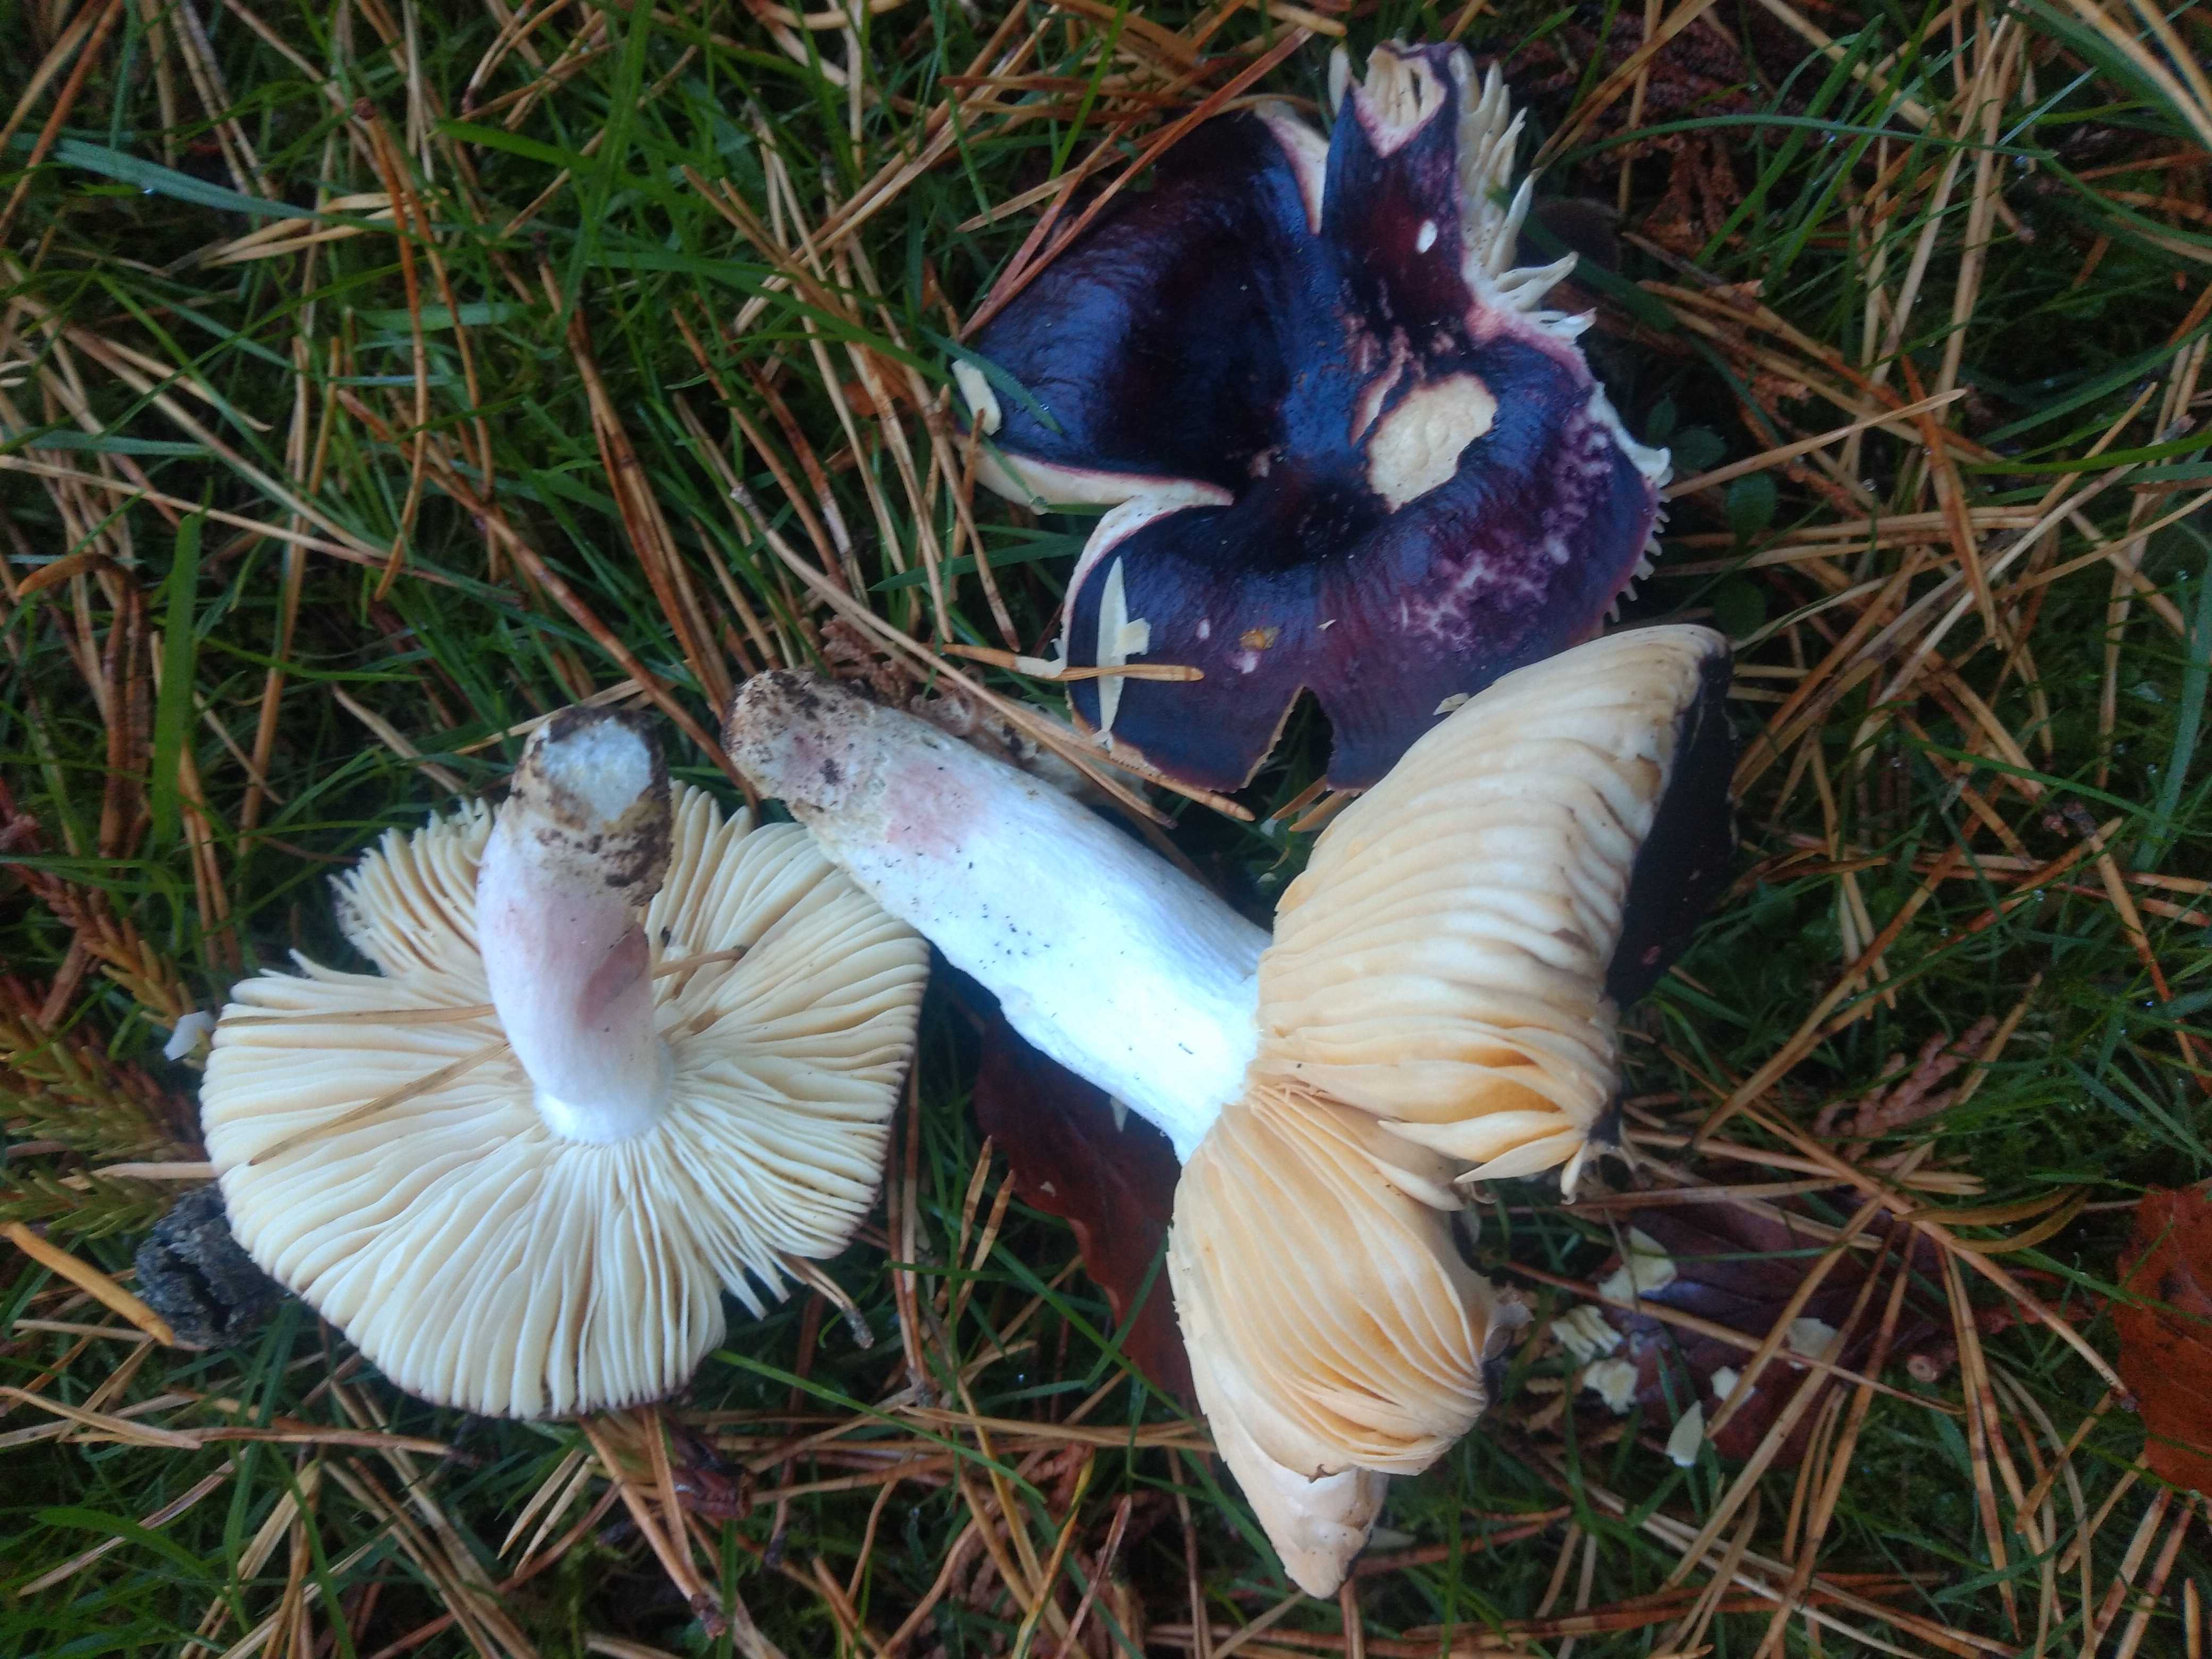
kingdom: Fungi
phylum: Basidiomycota
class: Agaricomycetes
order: Russulales
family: Russulaceae
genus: Russula
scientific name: Russula
